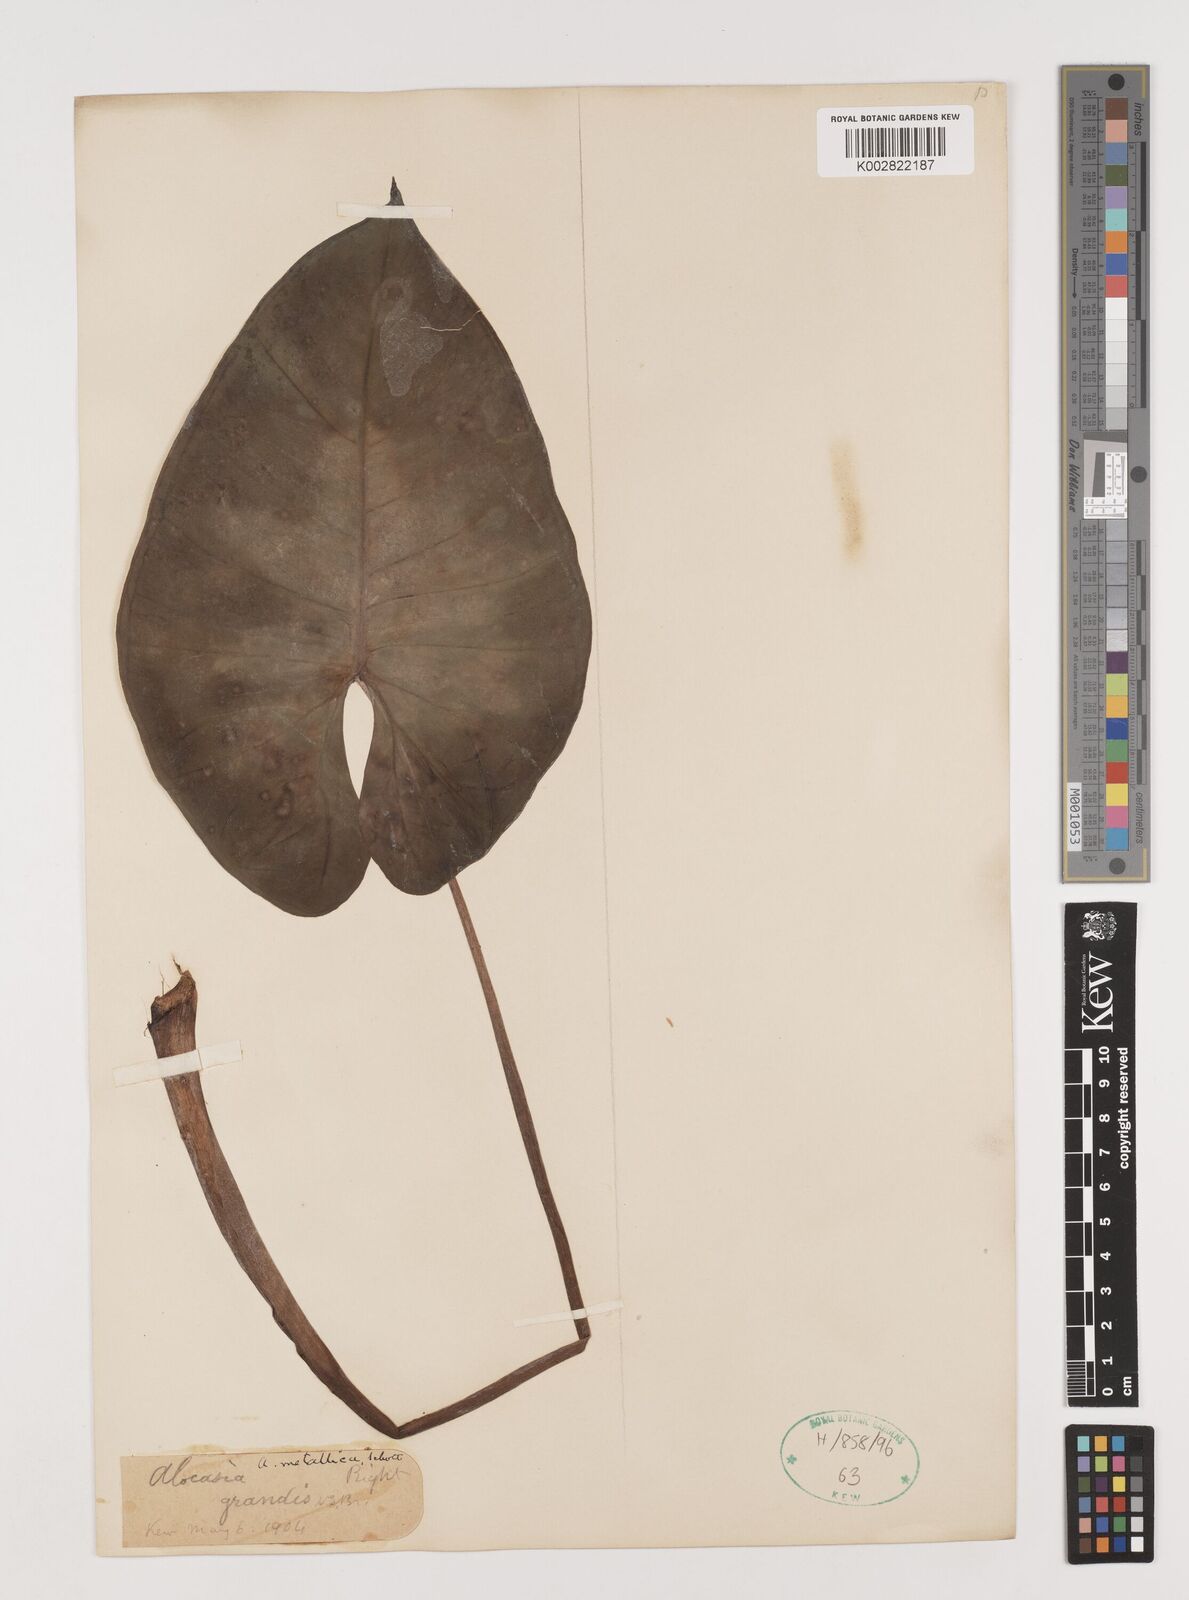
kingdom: Plantae
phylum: Tracheophyta
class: Liliopsida
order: Alismatales
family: Araceae
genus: Alocasia
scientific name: Alocasia macrorrhizos
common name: Giant taro
